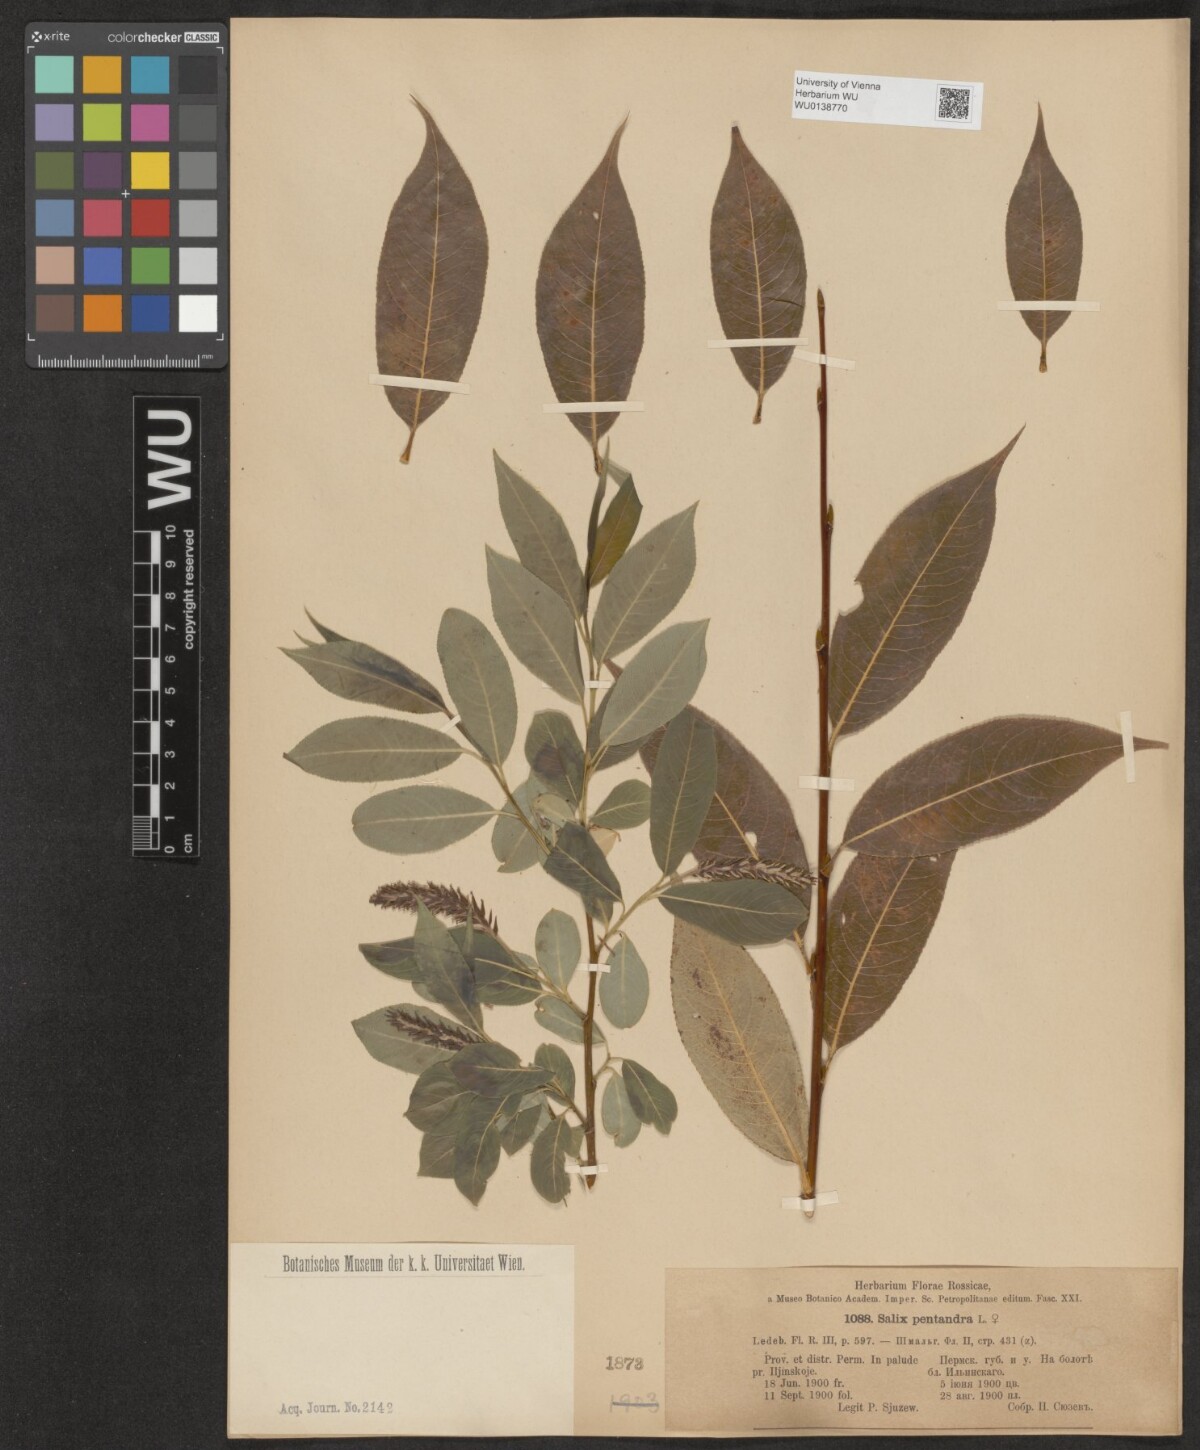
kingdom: Plantae
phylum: Tracheophyta
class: Magnoliopsida
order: Malpighiales
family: Salicaceae
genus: Salix
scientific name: Salix pentandra
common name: Bay willow
